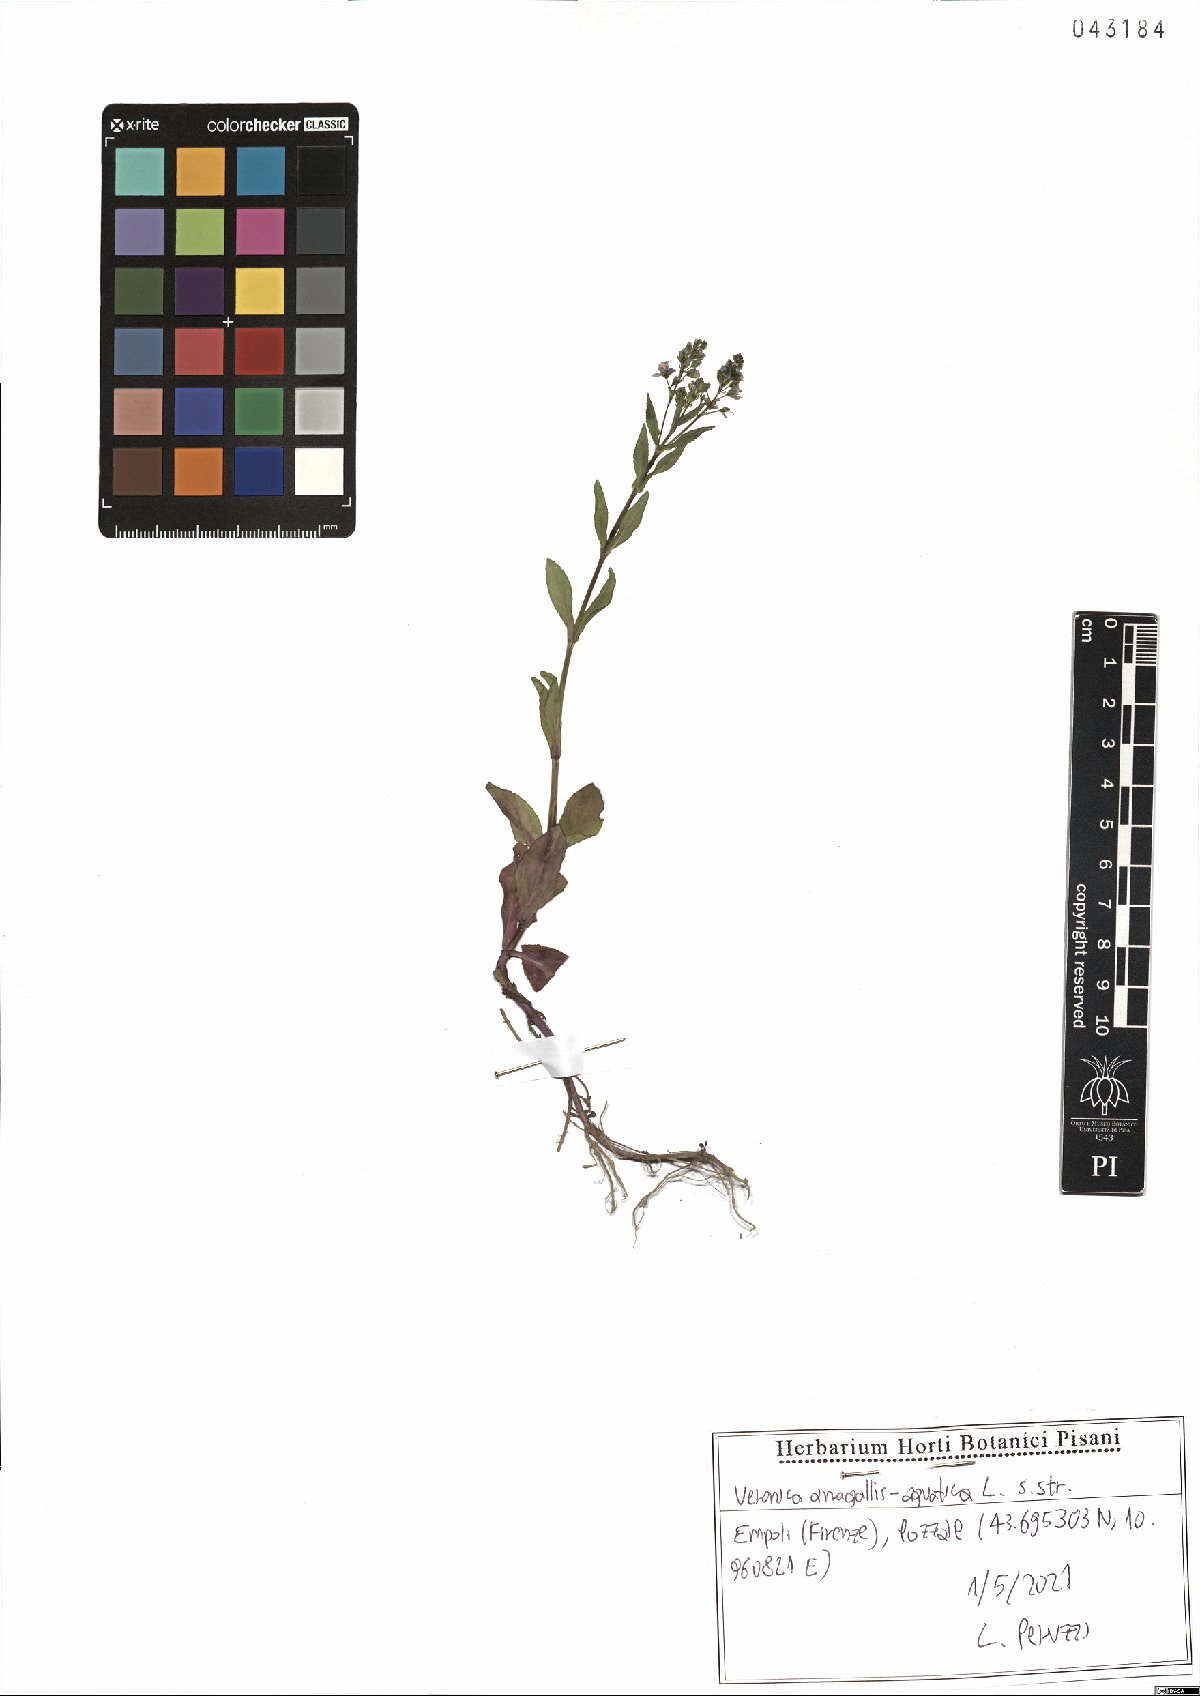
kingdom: Plantae
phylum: Tracheophyta
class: Magnoliopsida
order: Lamiales
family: Plantaginaceae
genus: Veronica
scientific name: Veronica anagallis-aquatica
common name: Water speedwell
